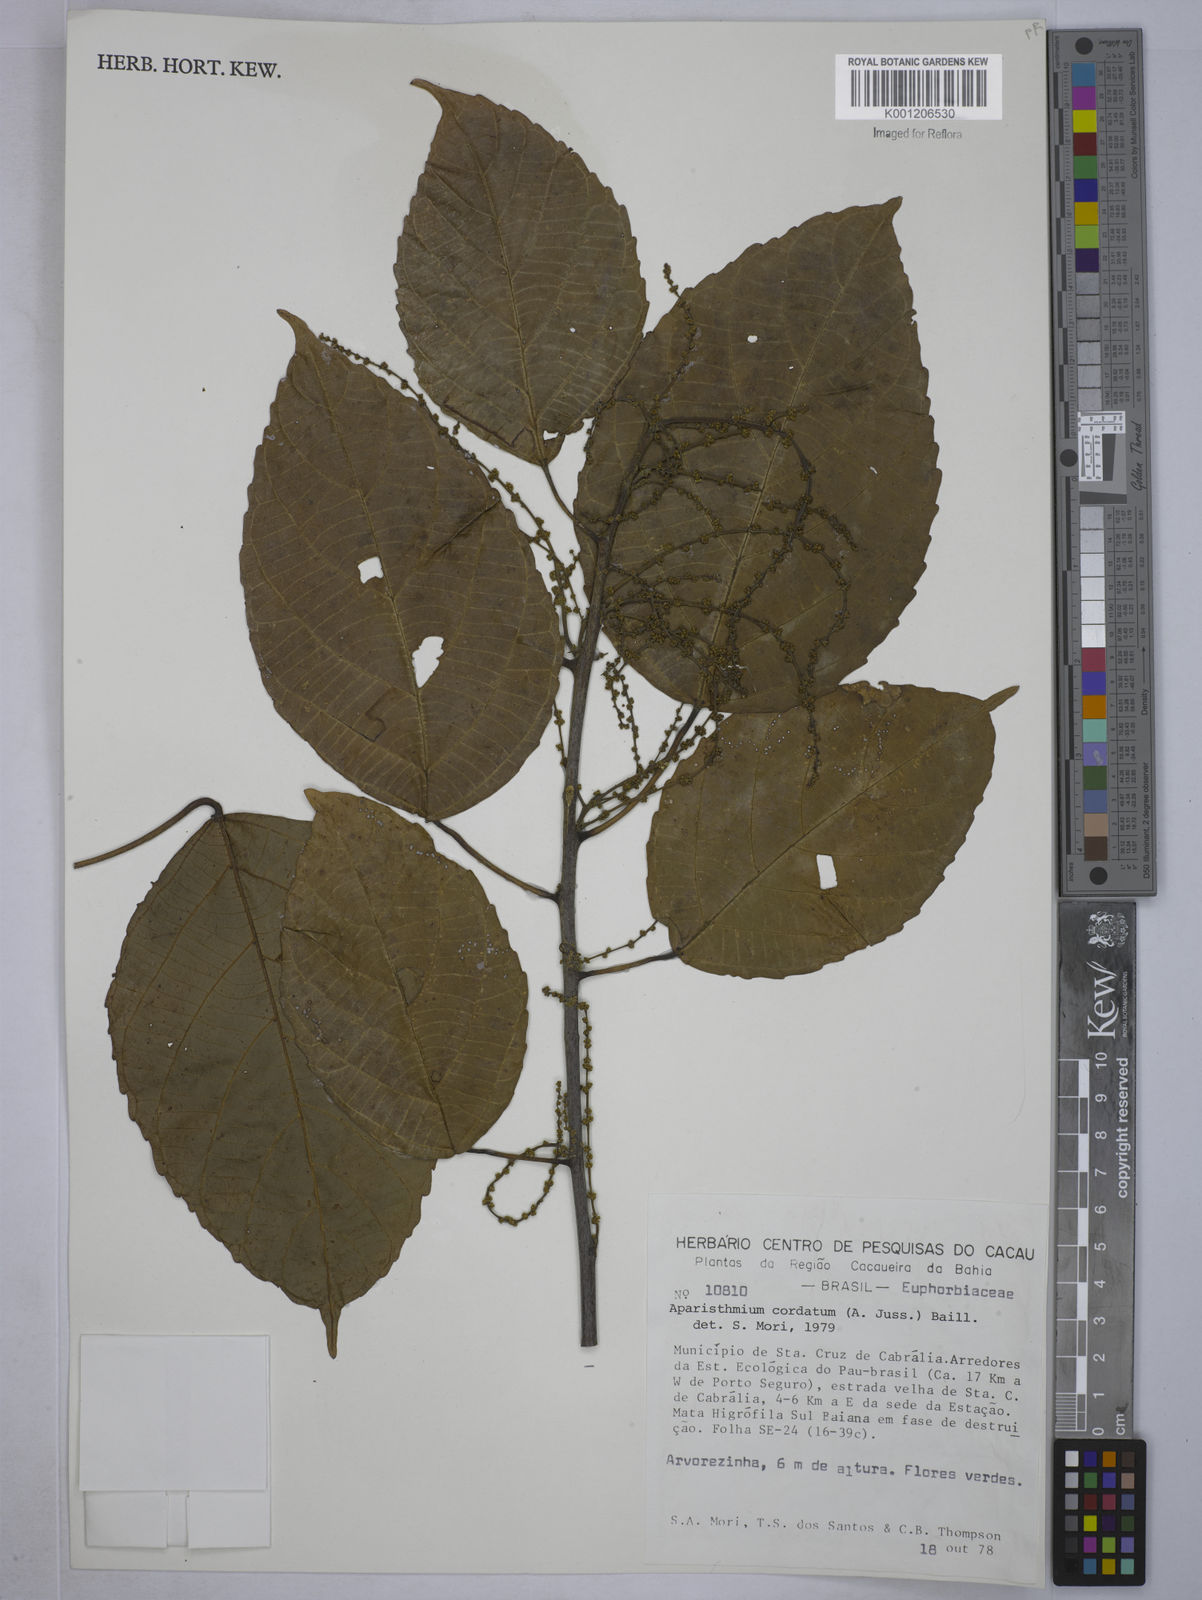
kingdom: Plantae
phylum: Tracheophyta
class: Magnoliopsida
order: Malpighiales
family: Euphorbiaceae
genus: Aparisthmium
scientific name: Aparisthmium cordatum
